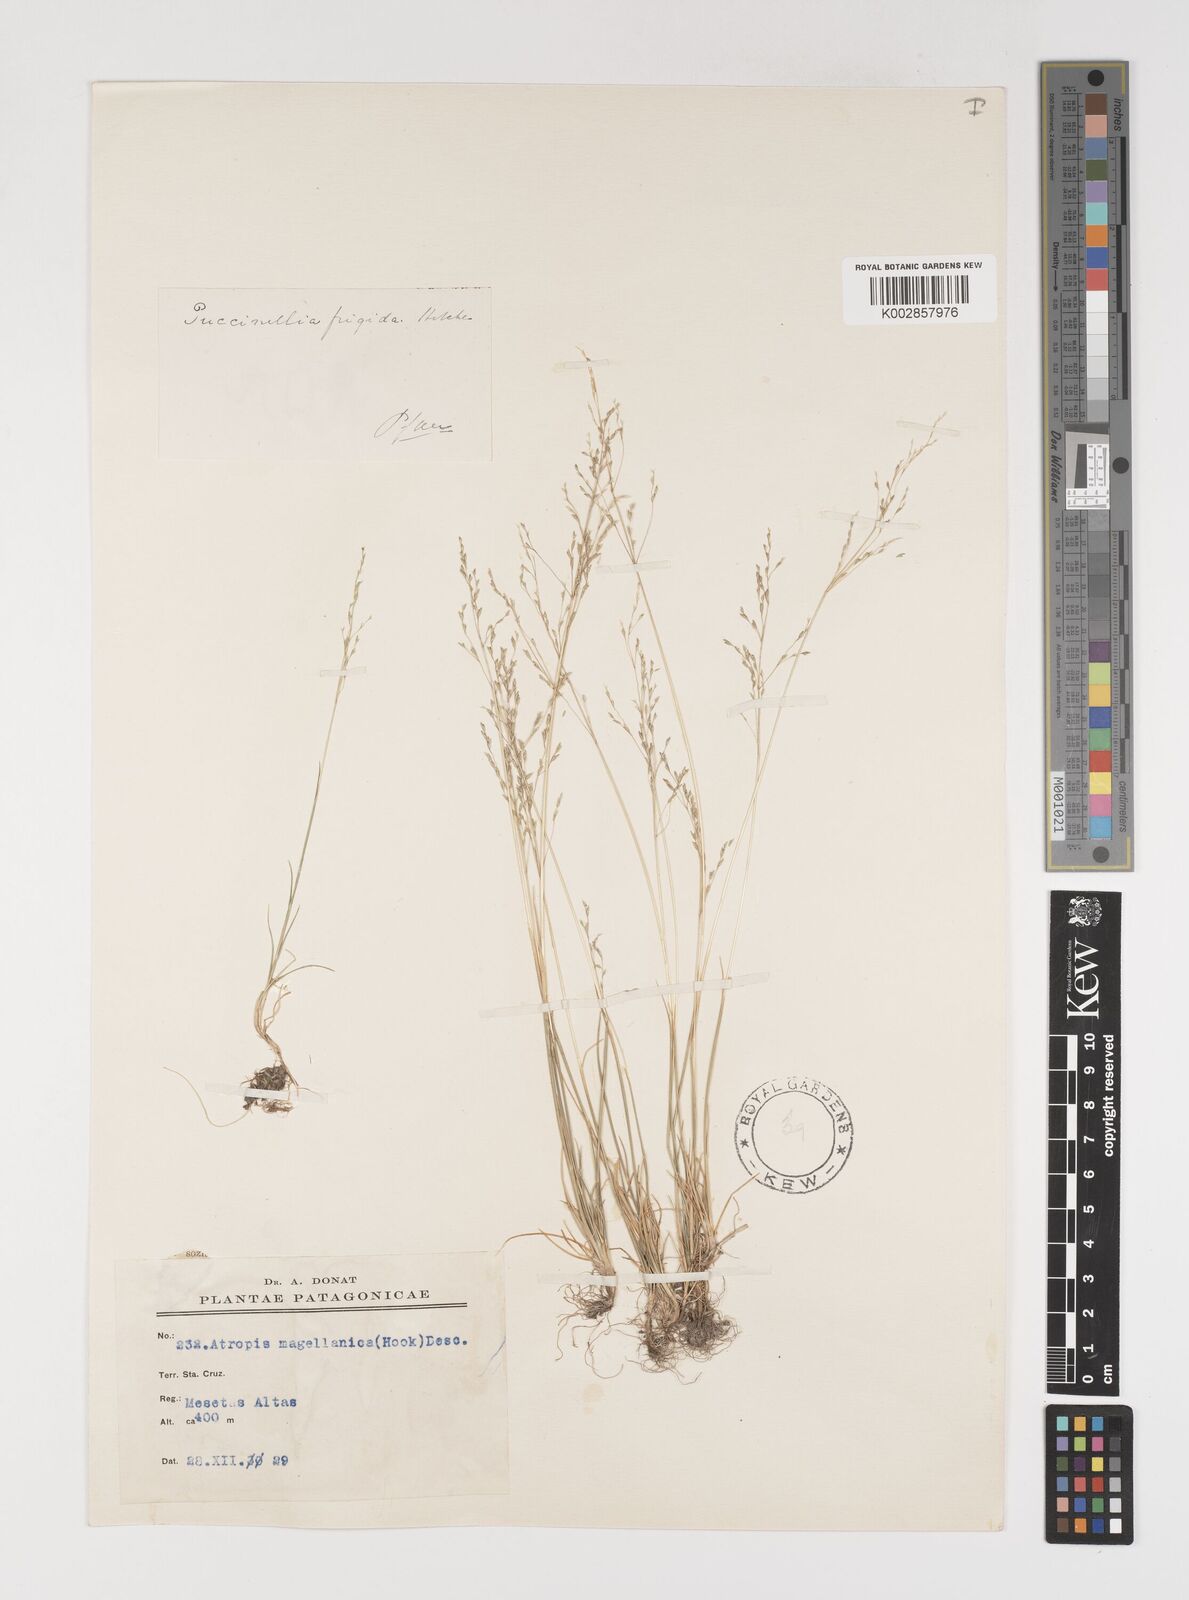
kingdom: Plantae
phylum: Tracheophyta
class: Liliopsida
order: Poales
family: Poaceae
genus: Puccinellia
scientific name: Puccinellia frigida
